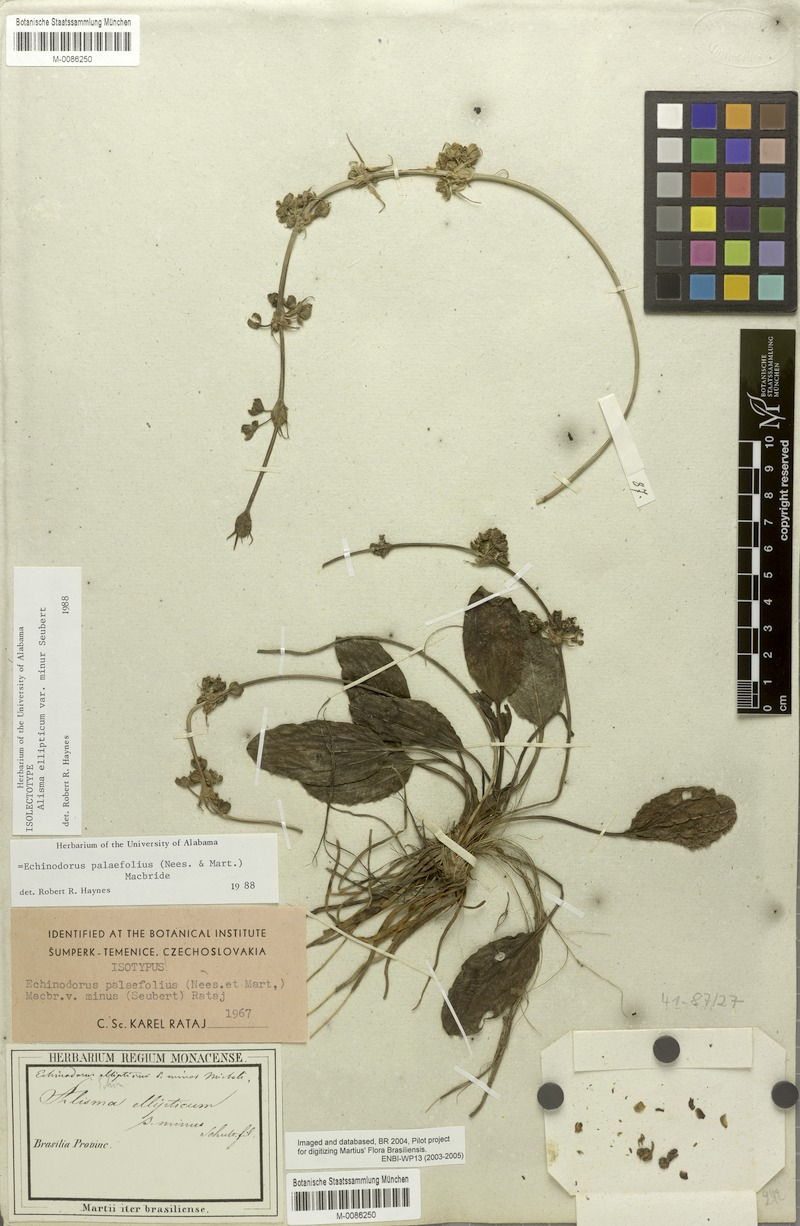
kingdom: Plantae
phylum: Tracheophyta
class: Liliopsida
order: Alismatales
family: Alismataceae
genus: Aquarius
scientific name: Aquarius palifolius
